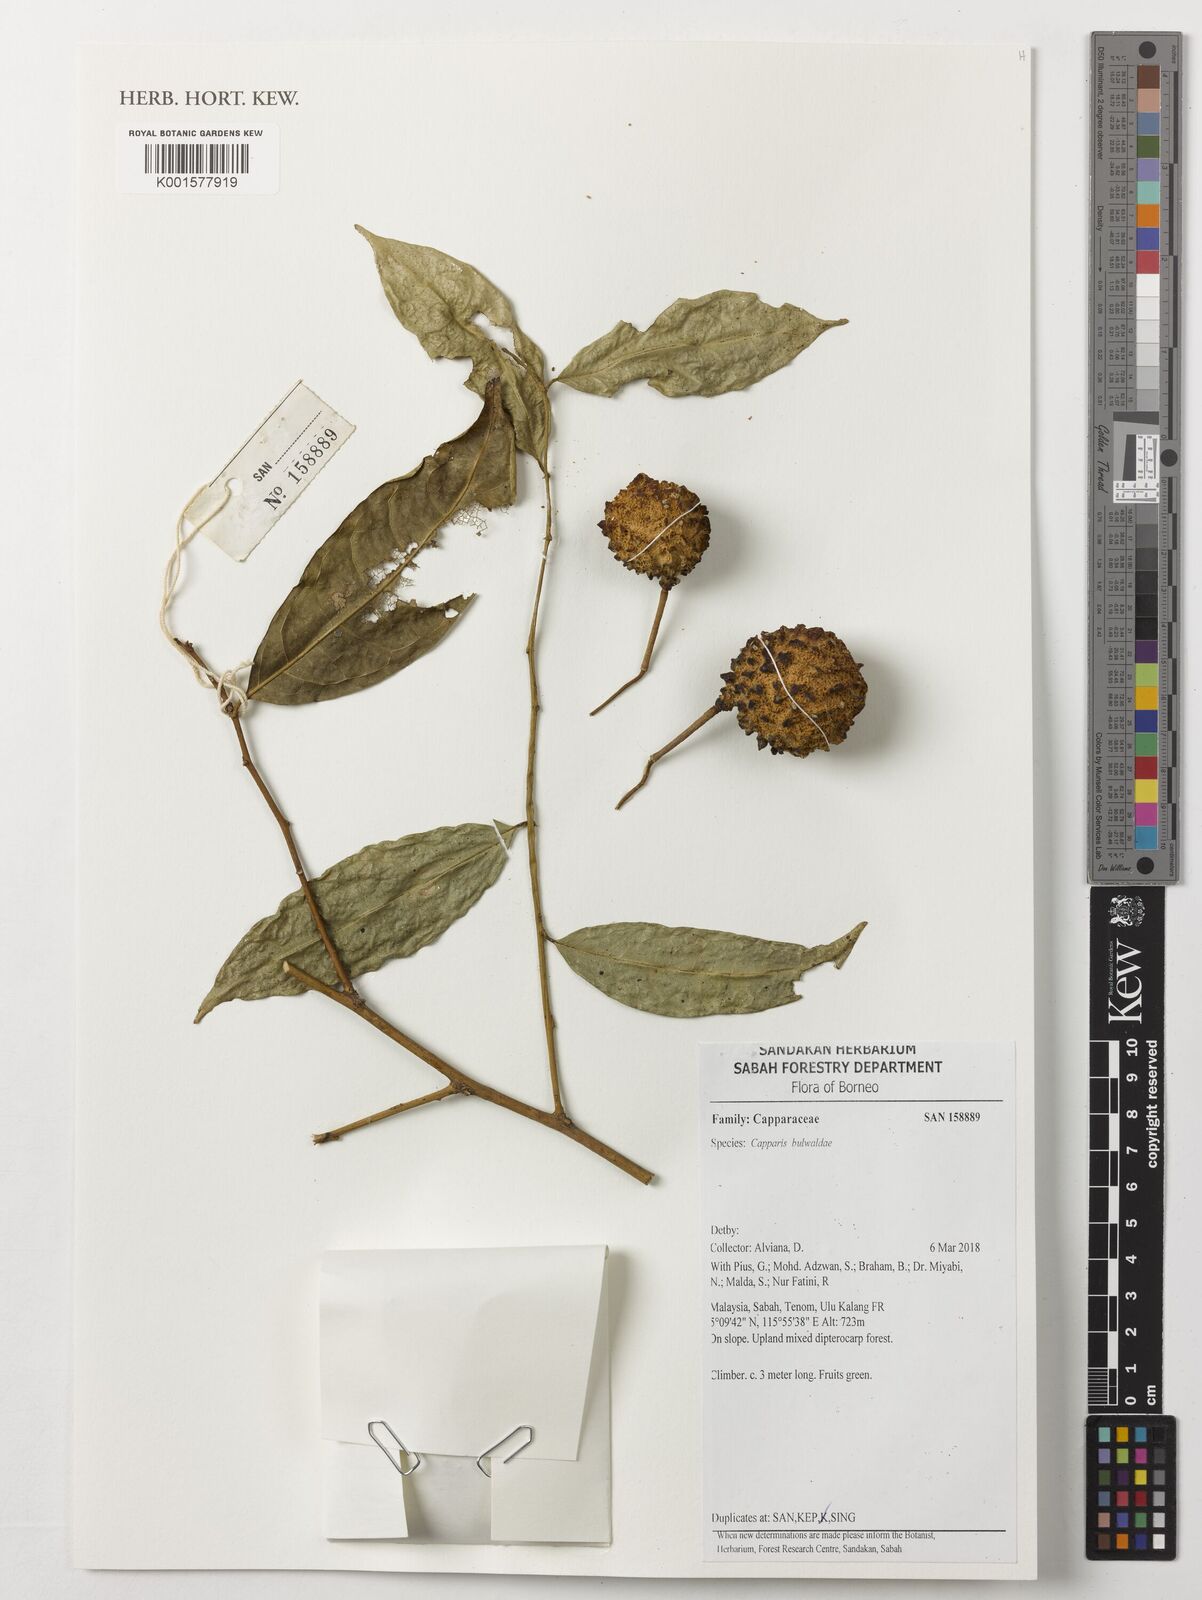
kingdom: Plantae
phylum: Tracheophyta
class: Magnoliopsida
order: Brassicales
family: Capparaceae
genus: Capparis
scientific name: Capparis buwaldae
